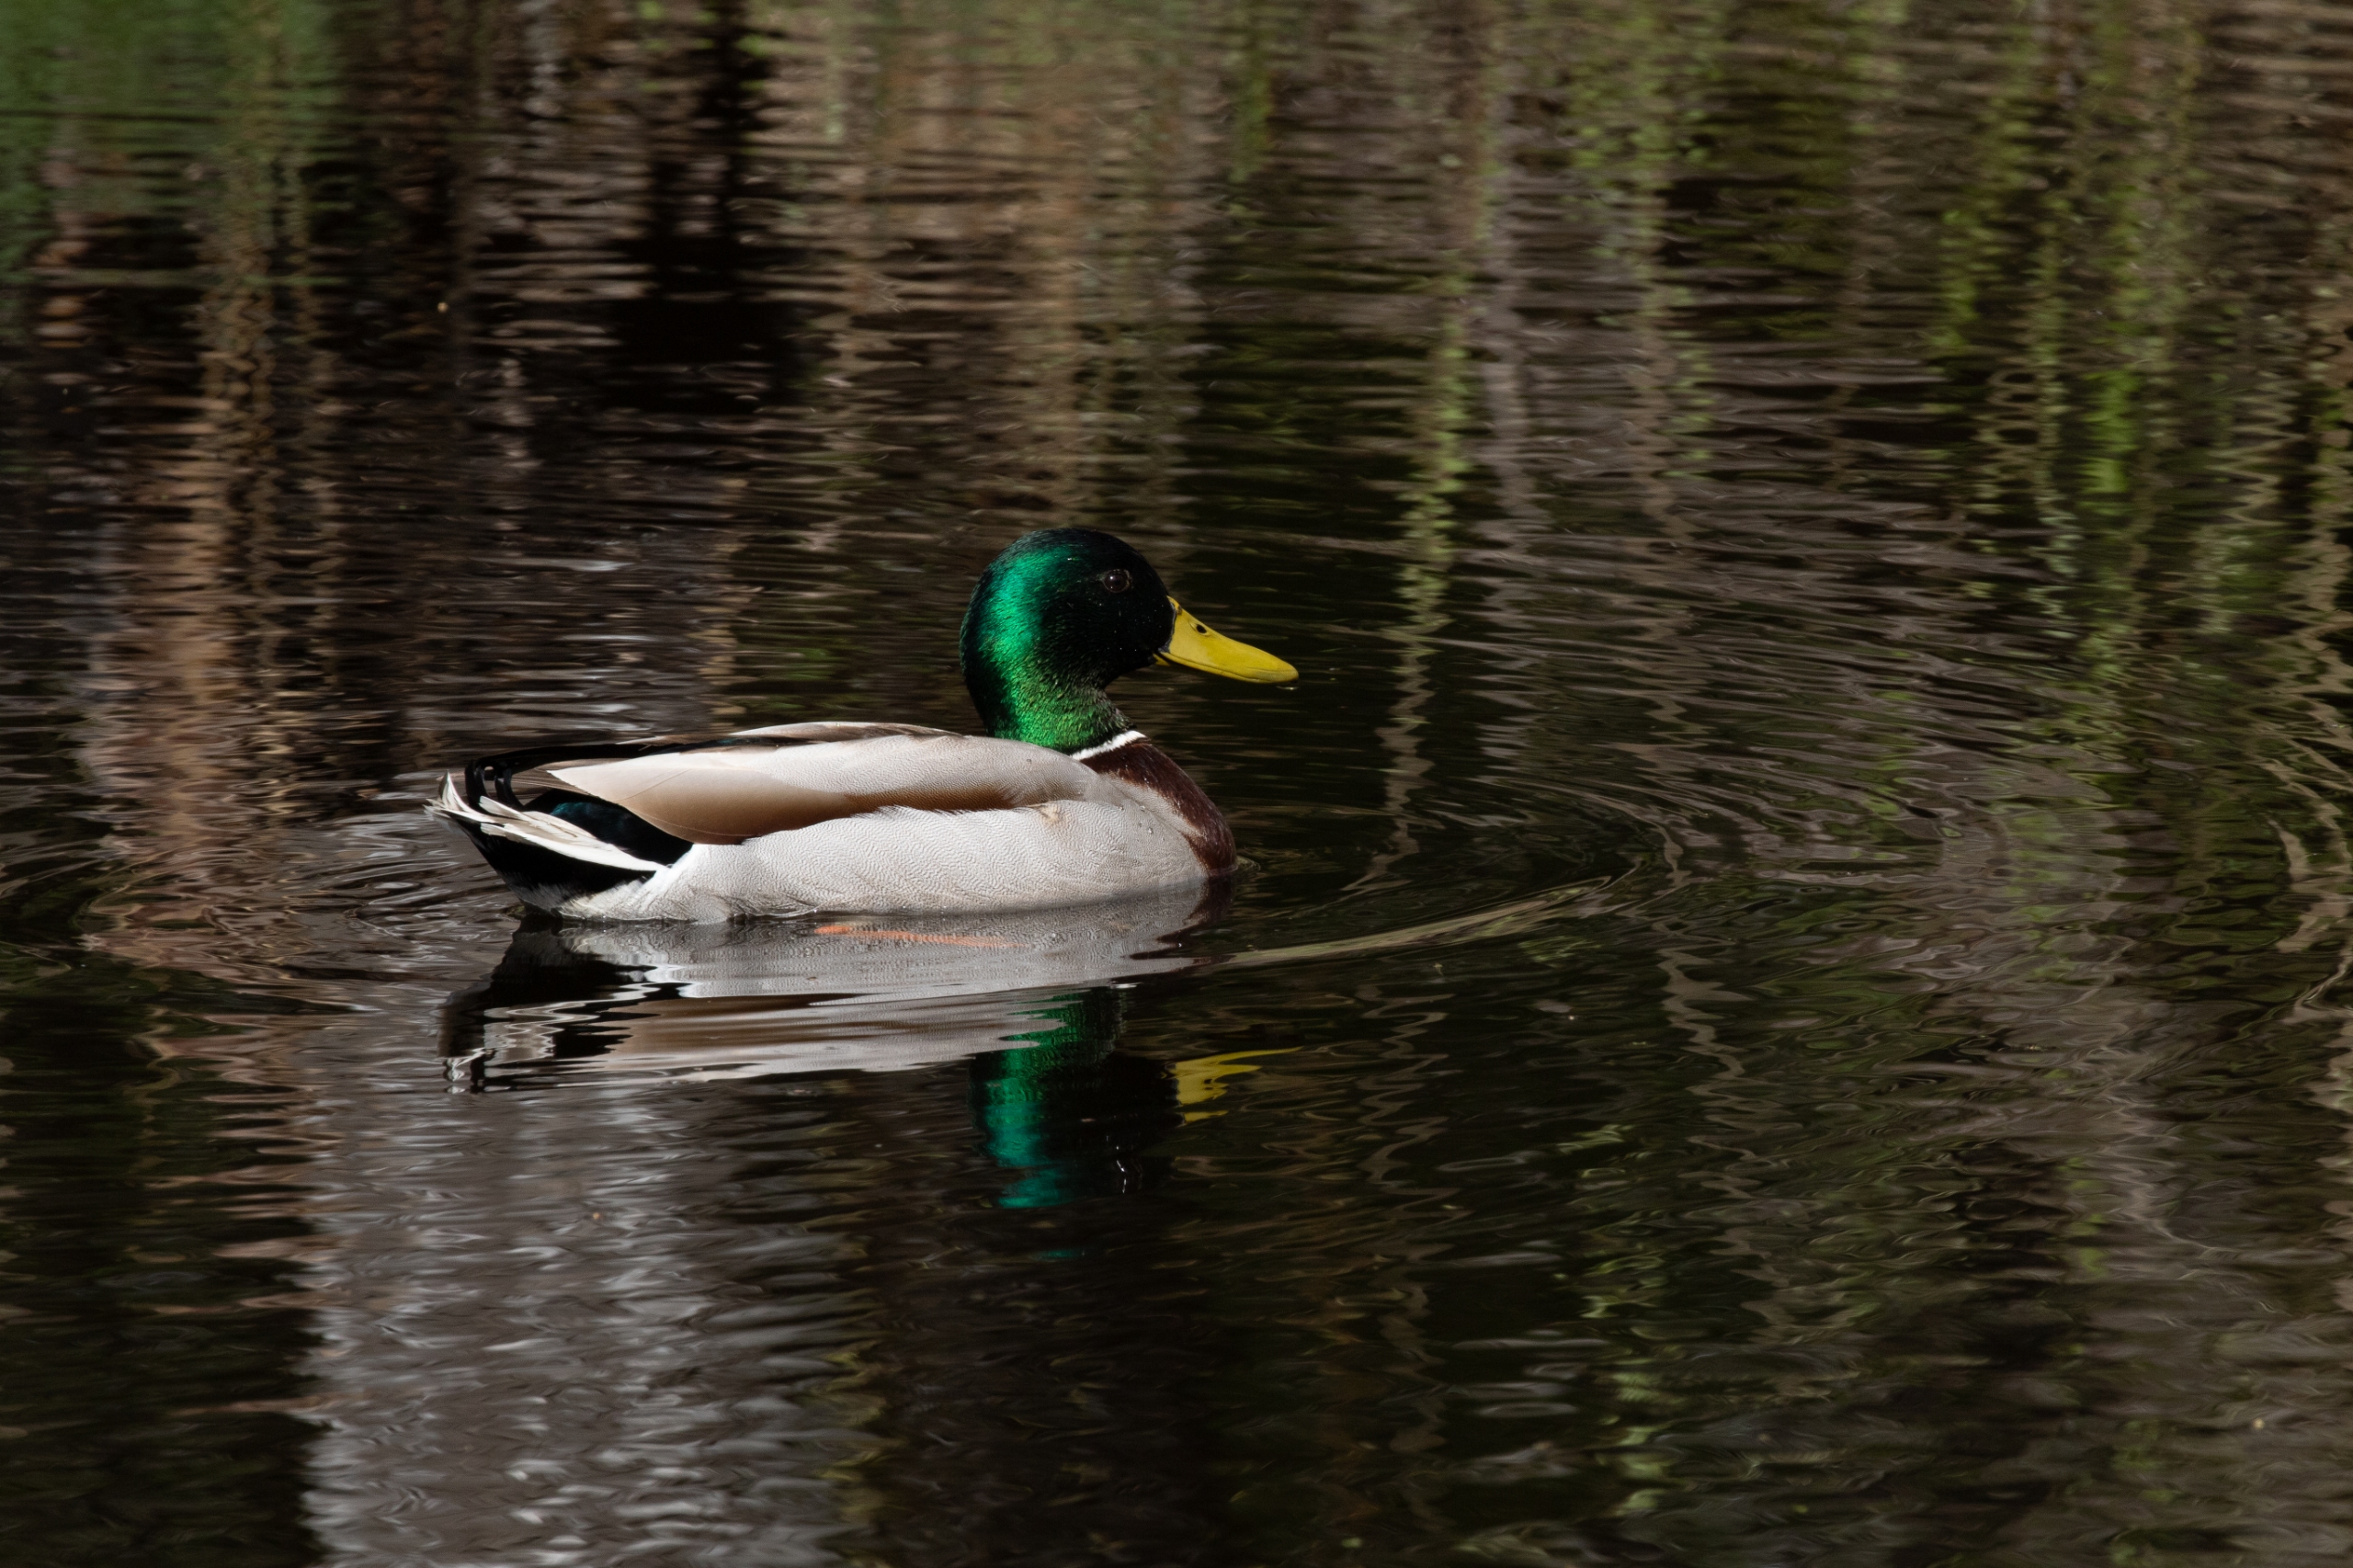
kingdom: Animalia
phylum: Chordata
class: Aves
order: Anseriformes
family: Anatidae
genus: Anas
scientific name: Anas platyrhynchos
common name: Gråand
